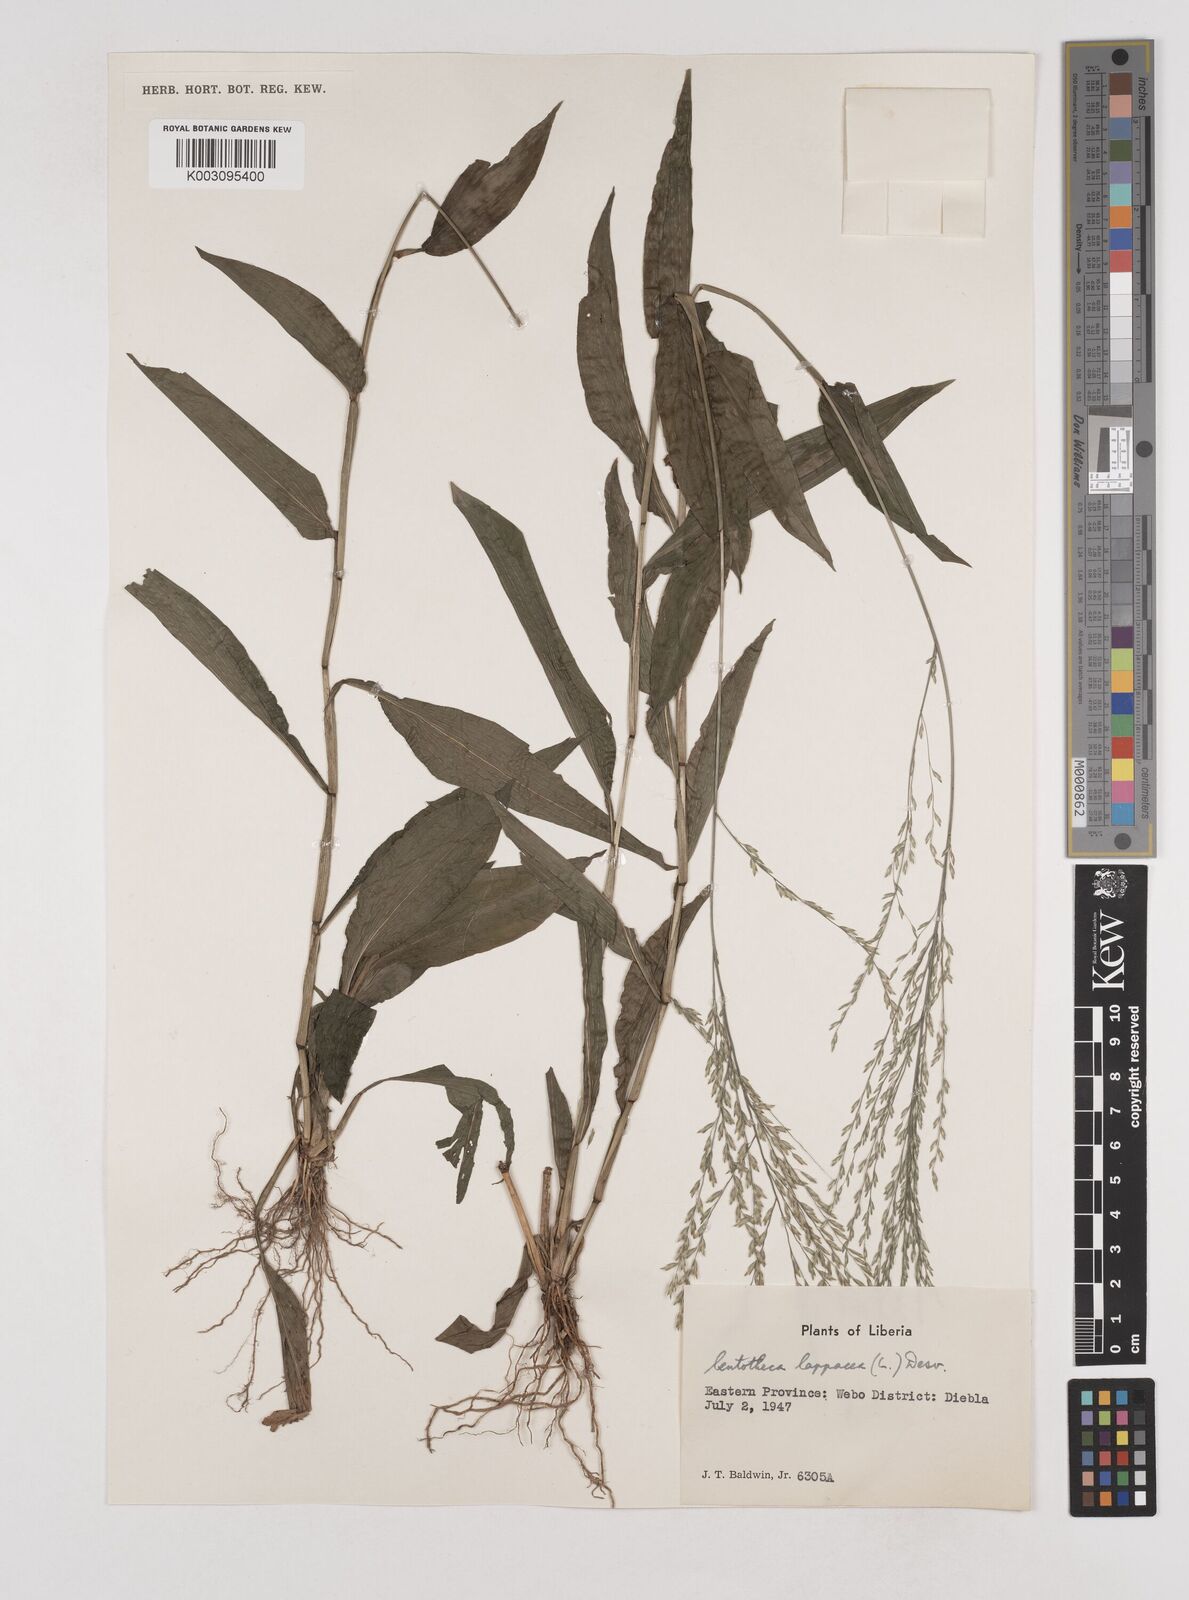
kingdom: Plantae
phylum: Tracheophyta
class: Liliopsida
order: Poales
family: Poaceae
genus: Centotheca
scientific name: Centotheca lappacea
